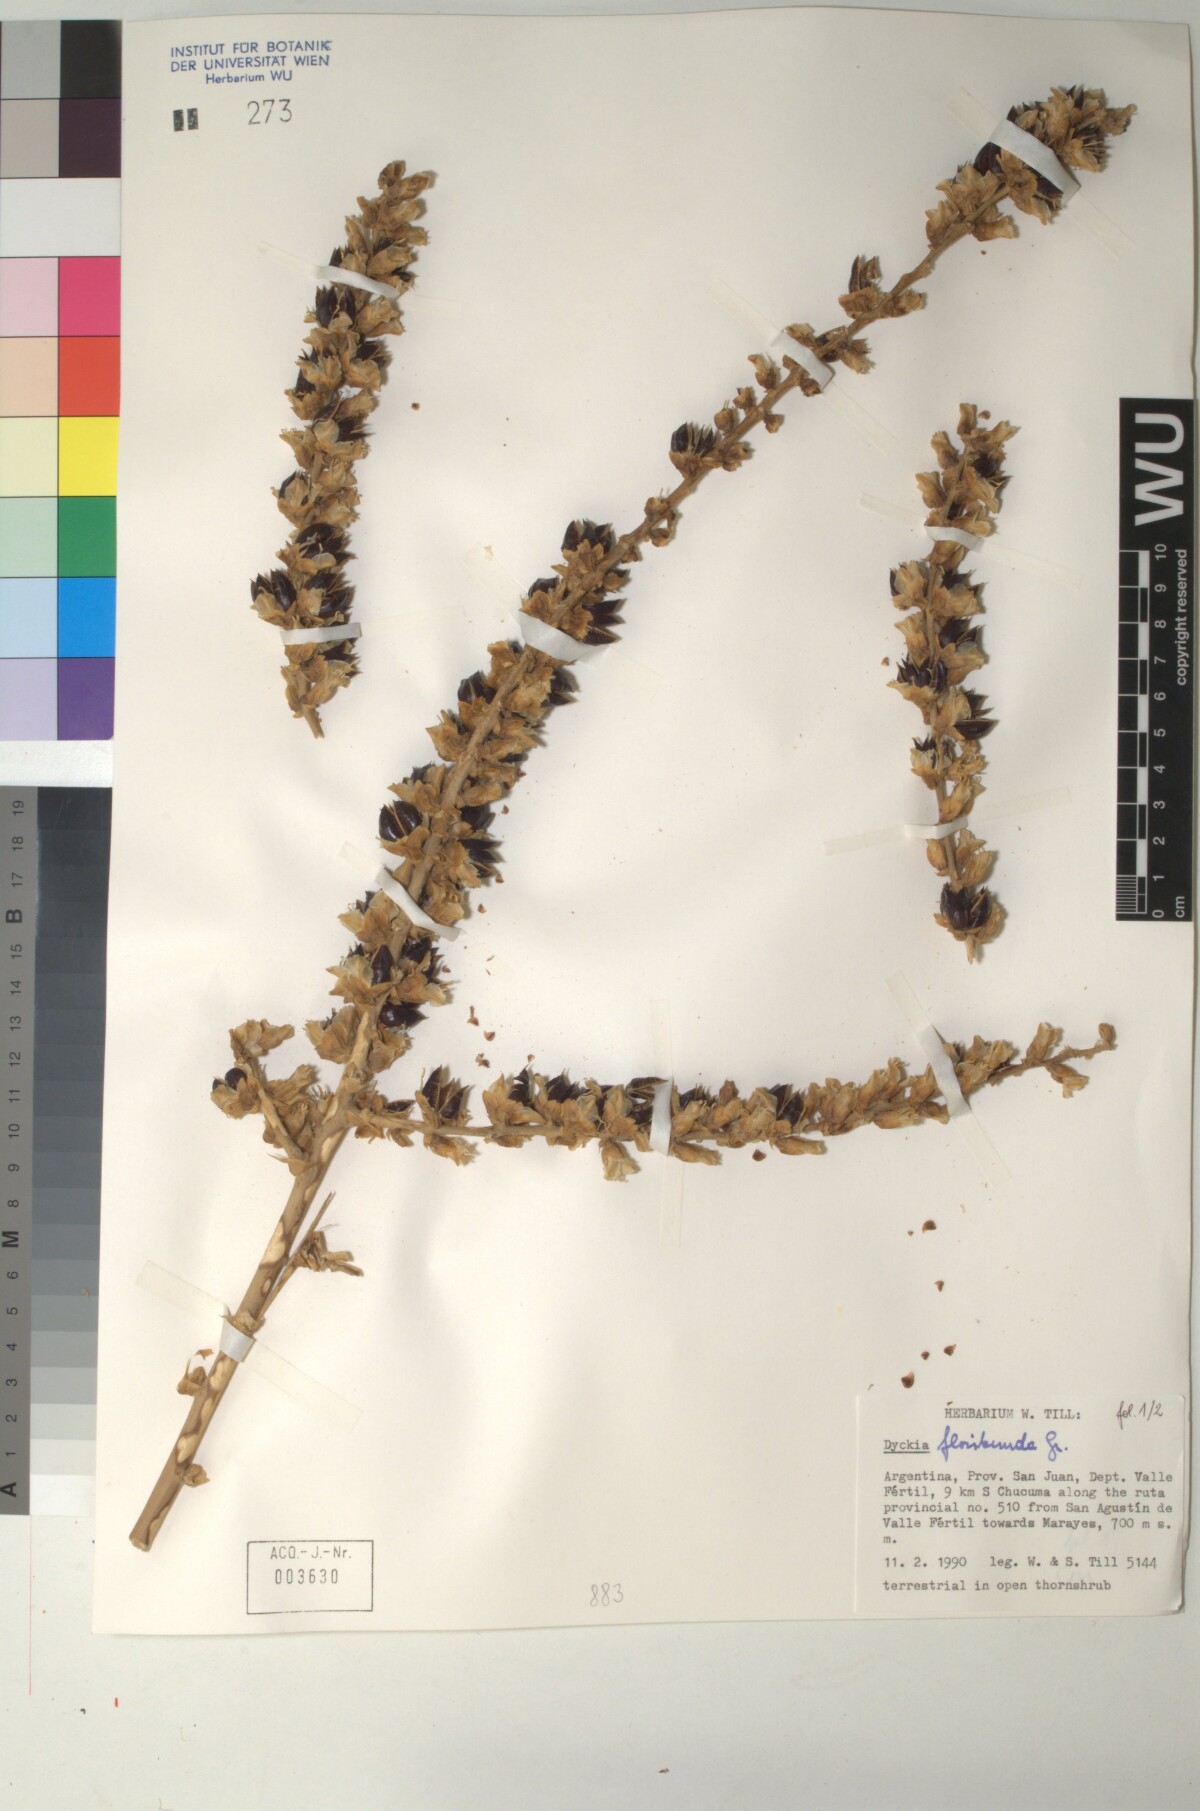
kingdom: Plantae
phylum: Tracheophyta
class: Liliopsida
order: Poales
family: Bromeliaceae
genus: Dyckia
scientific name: Dyckia floribunda
